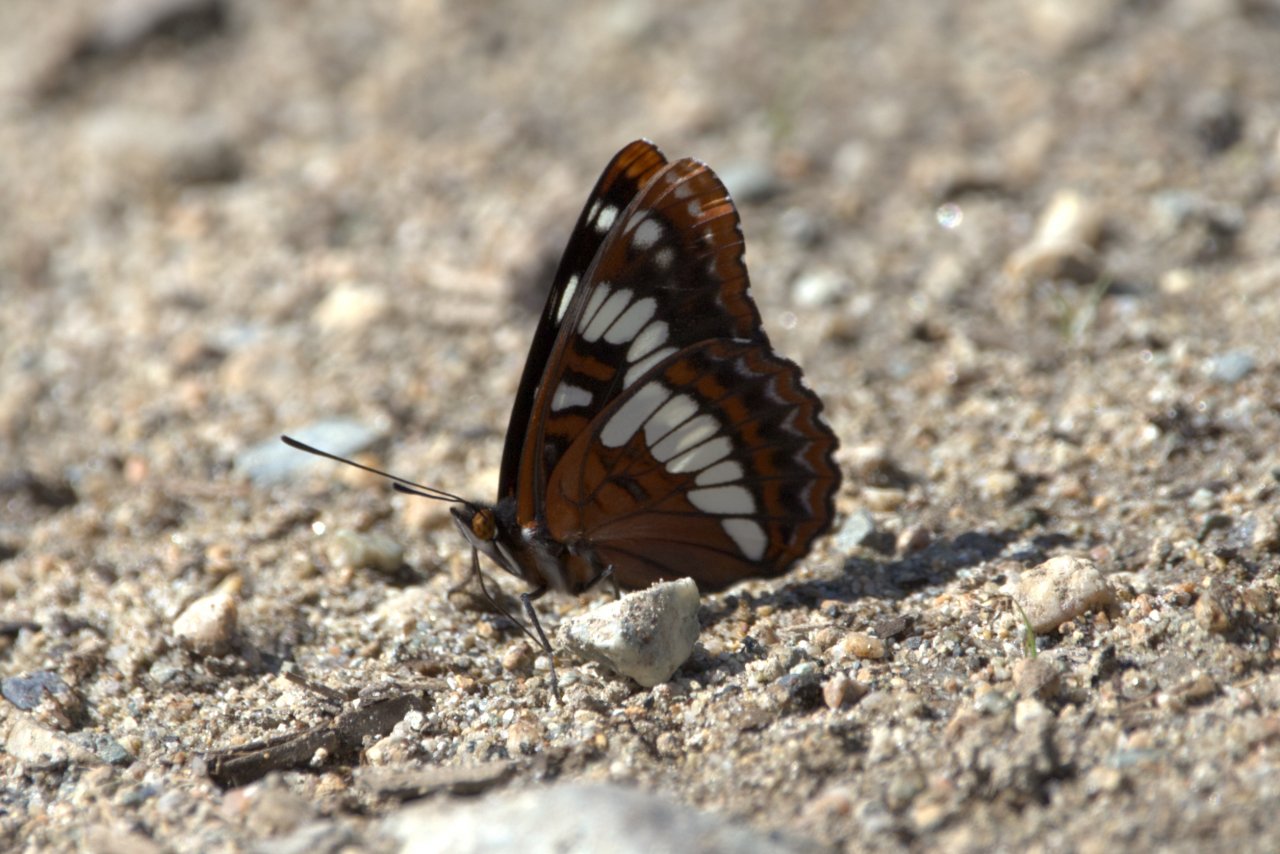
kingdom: Animalia
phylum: Arthropoda
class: Insecta
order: Lepidoptera
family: Nymphalidae
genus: Limenitis
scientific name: Limenitis lorquini
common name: Lorquin's Admiral
